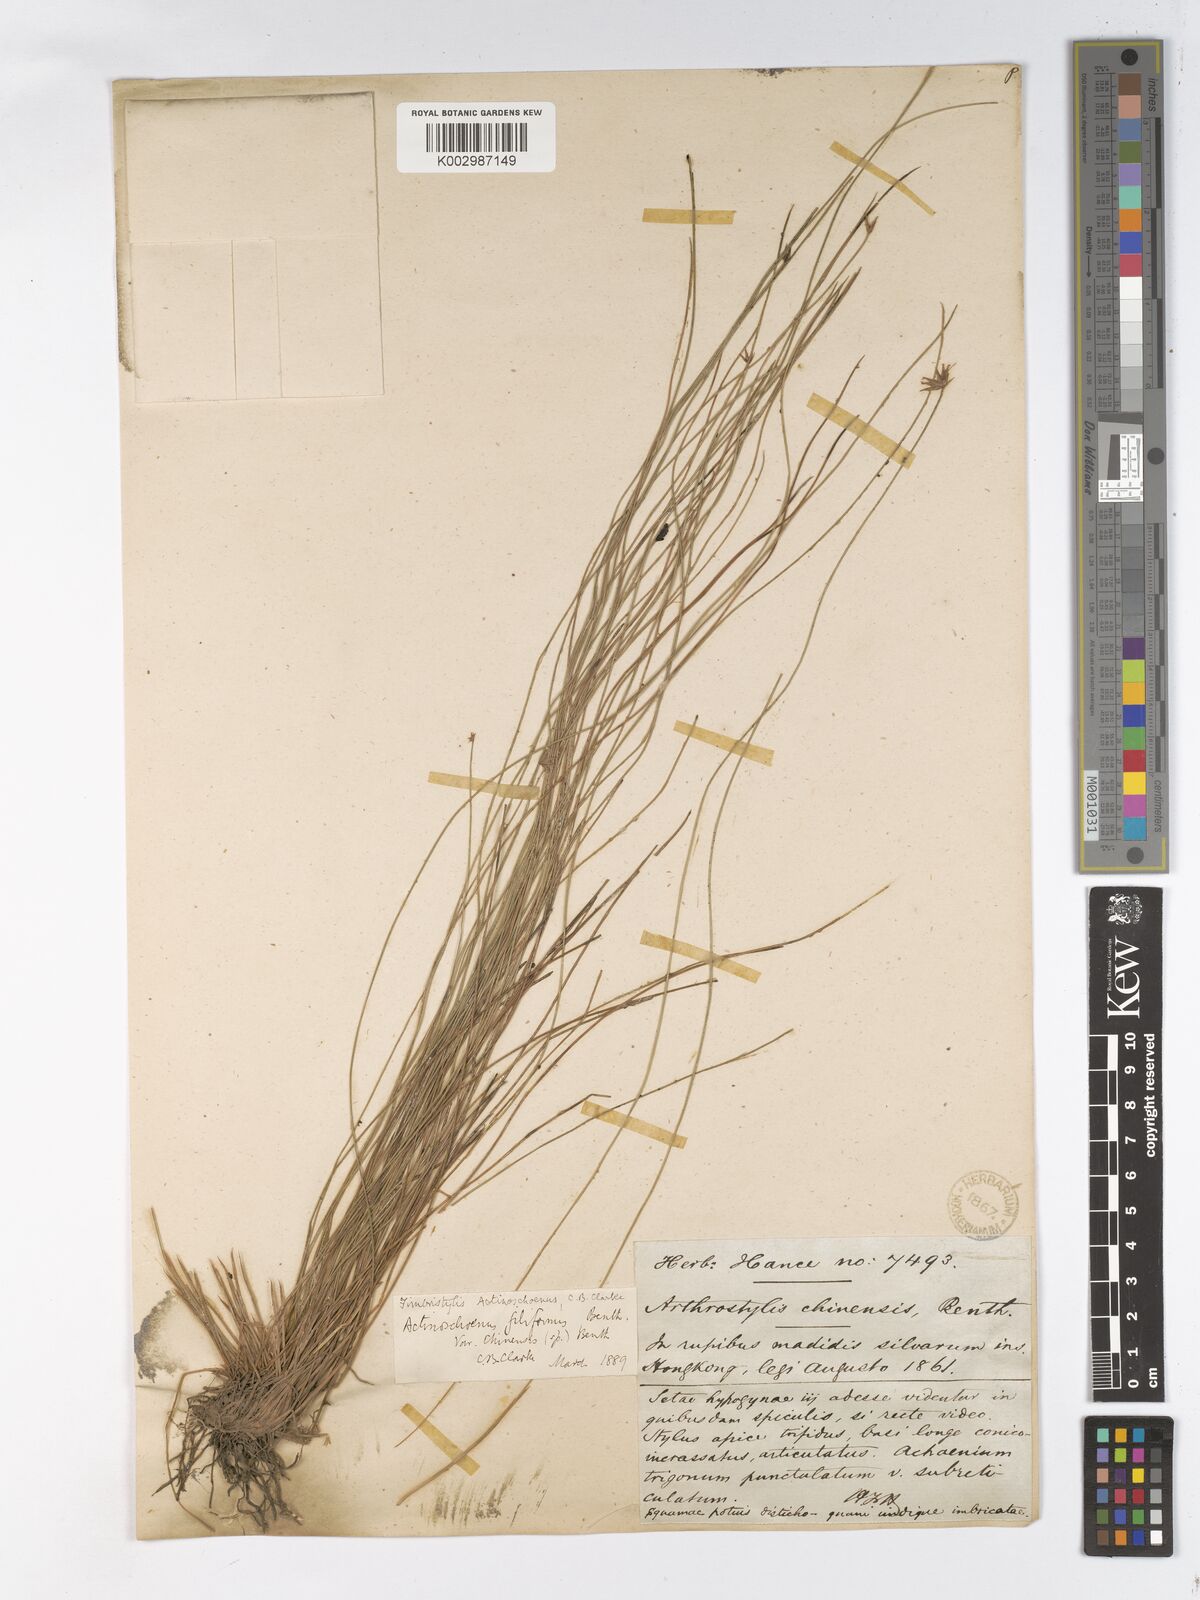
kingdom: Plantae
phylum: Tracheophyta
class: Liliopsida
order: Poales
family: Cyperaceae
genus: Actinoschoenus
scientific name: Actinoschoenus aphyllus
